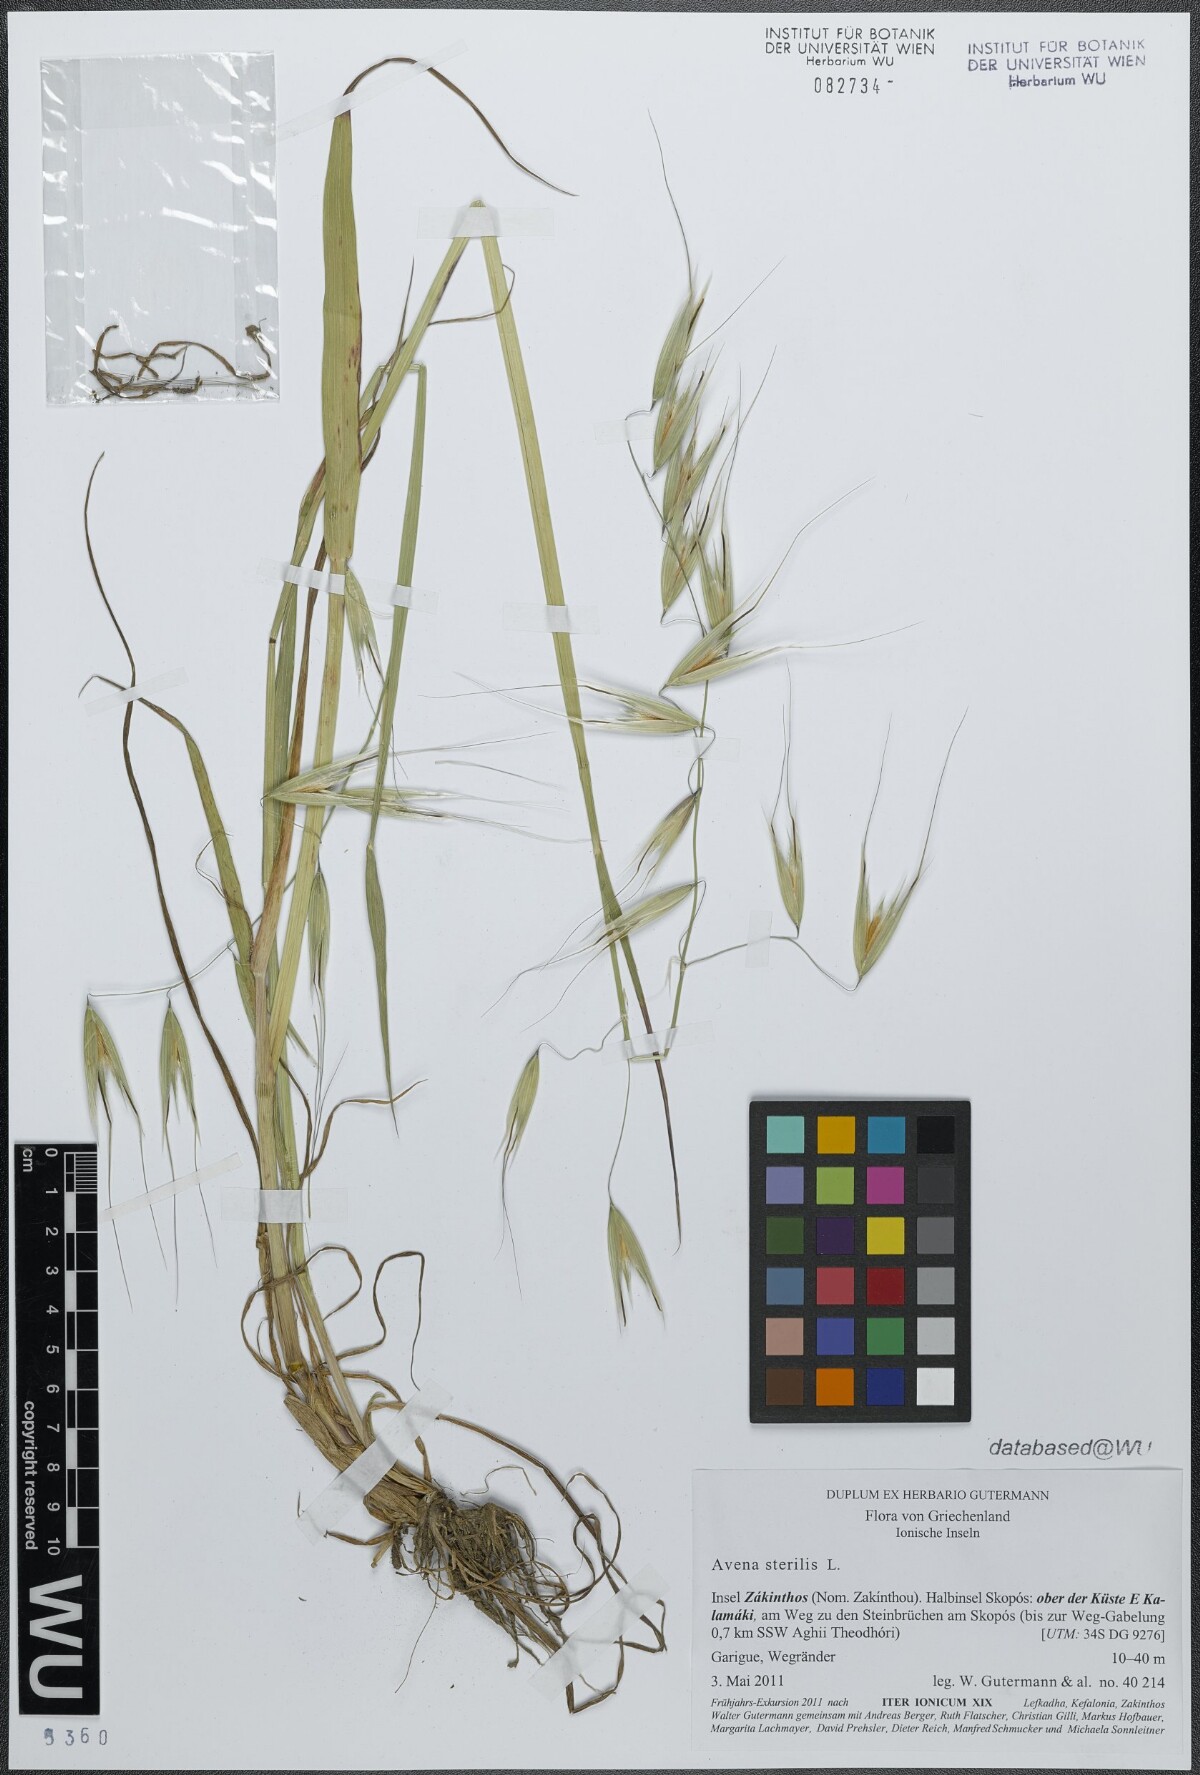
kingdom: Plantae
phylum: Tracheophyta
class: Liliopsida
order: Poales
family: Poaceae
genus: Avena
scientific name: Avena sterilis
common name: Animated oat
